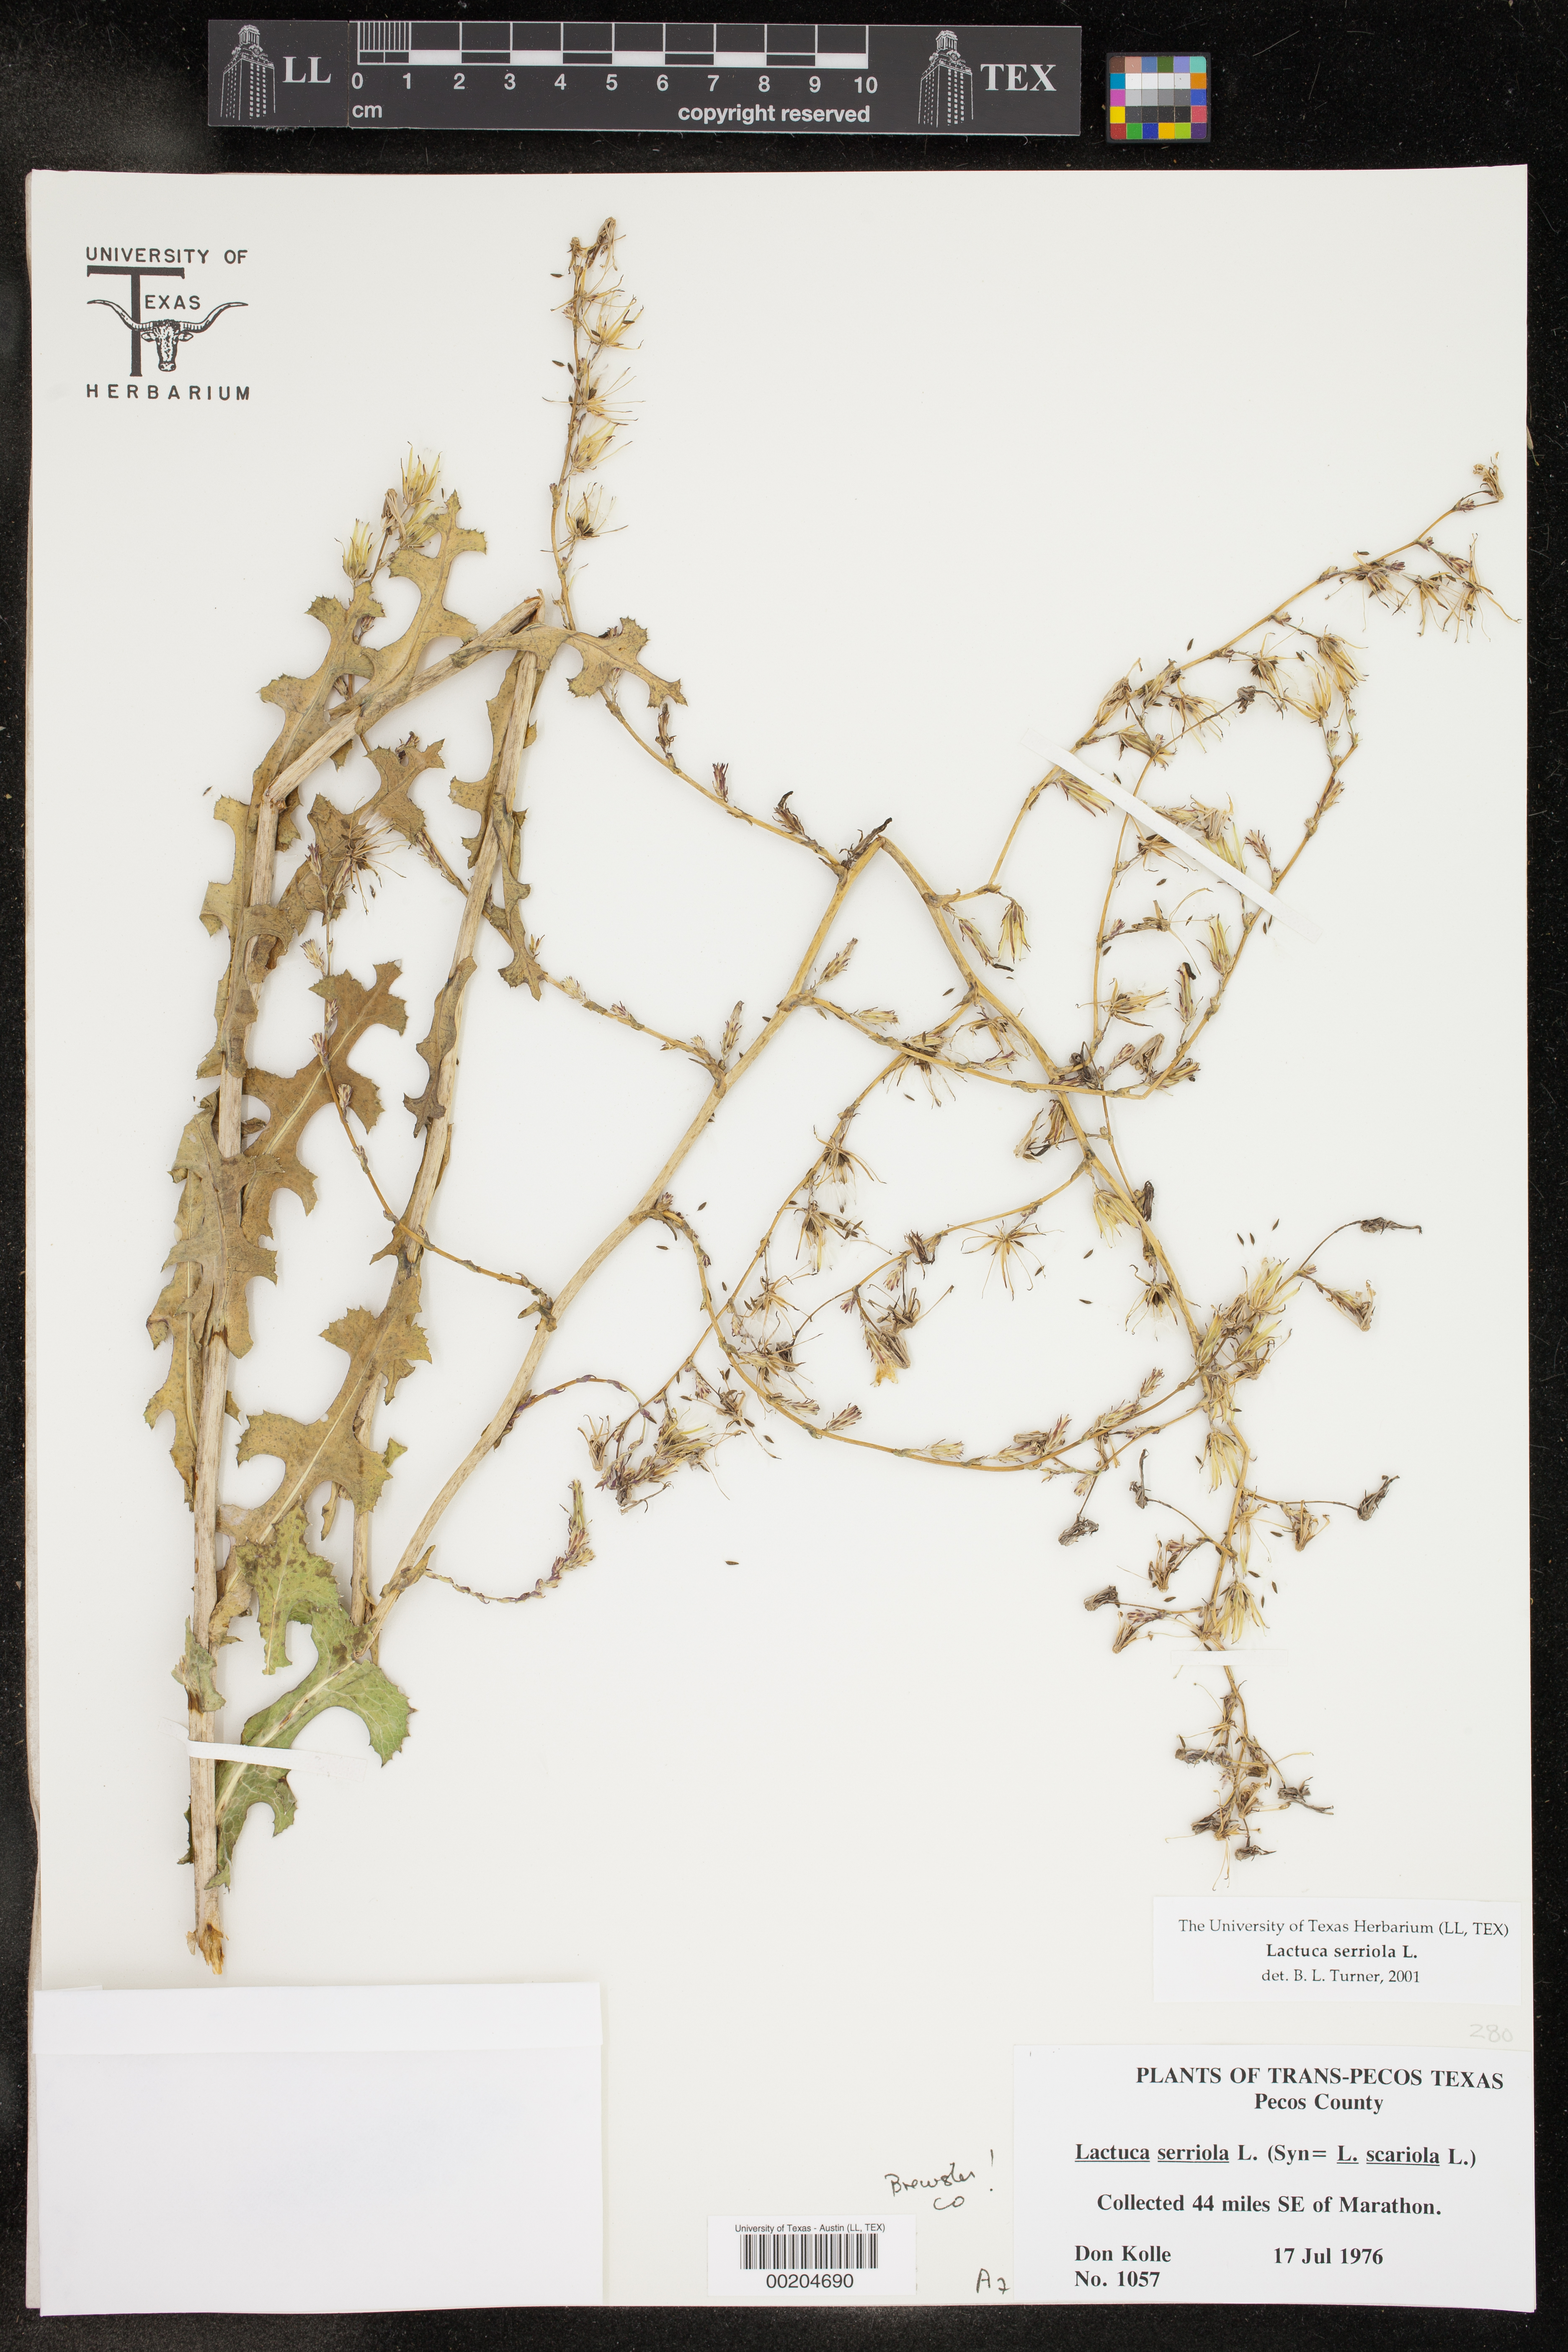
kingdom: Plantae
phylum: Tracheophyta
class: Magnoliopsida
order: Asterales
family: Asteraceae
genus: Lactuca
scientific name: Lactuca serriola
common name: Prickly lettuce
